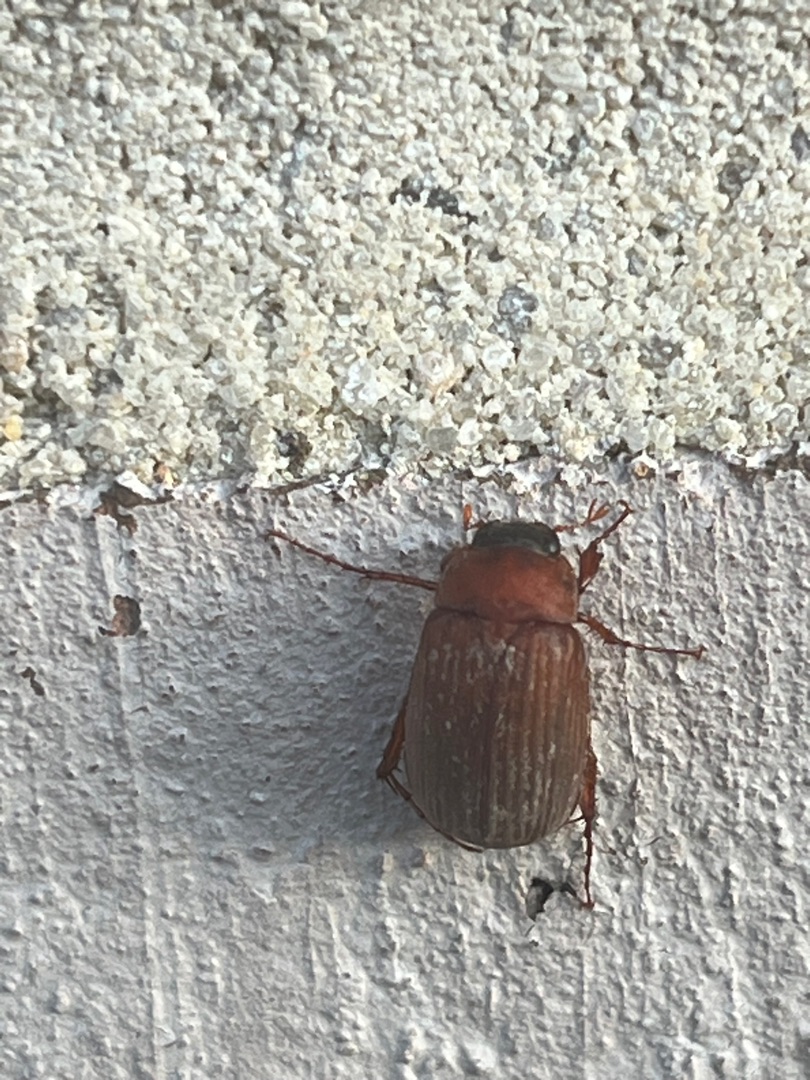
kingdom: Animalia
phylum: Arthropoda
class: Insecta
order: Coleoptera
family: Scarabaeidae
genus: Serica
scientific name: Serica brunnea
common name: Natoldenborre
